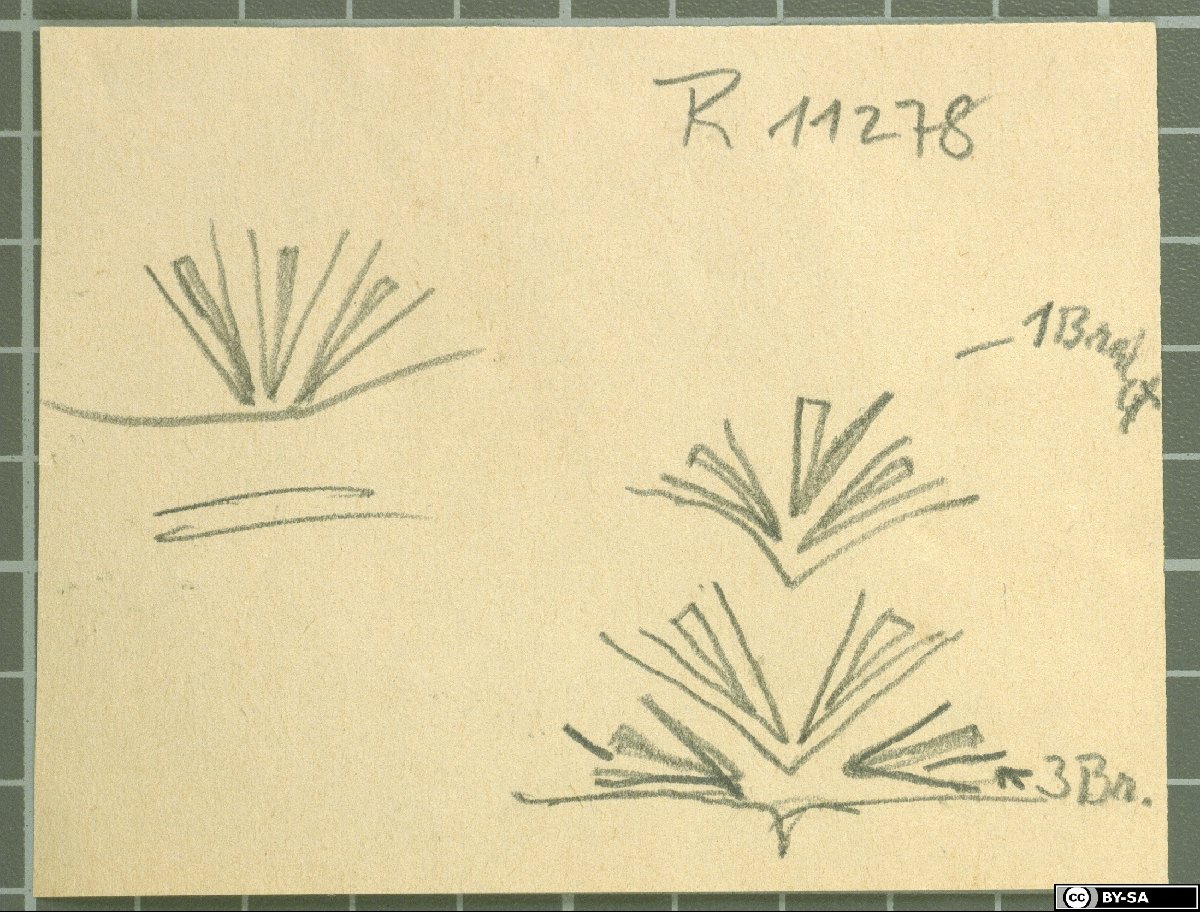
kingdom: Plantae
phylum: Tracheophyta
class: Magnoliopsida
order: Caryophyllales
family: Caryophyllaceae
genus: Acanthophyllum
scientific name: Acanthophyllum acerosum
